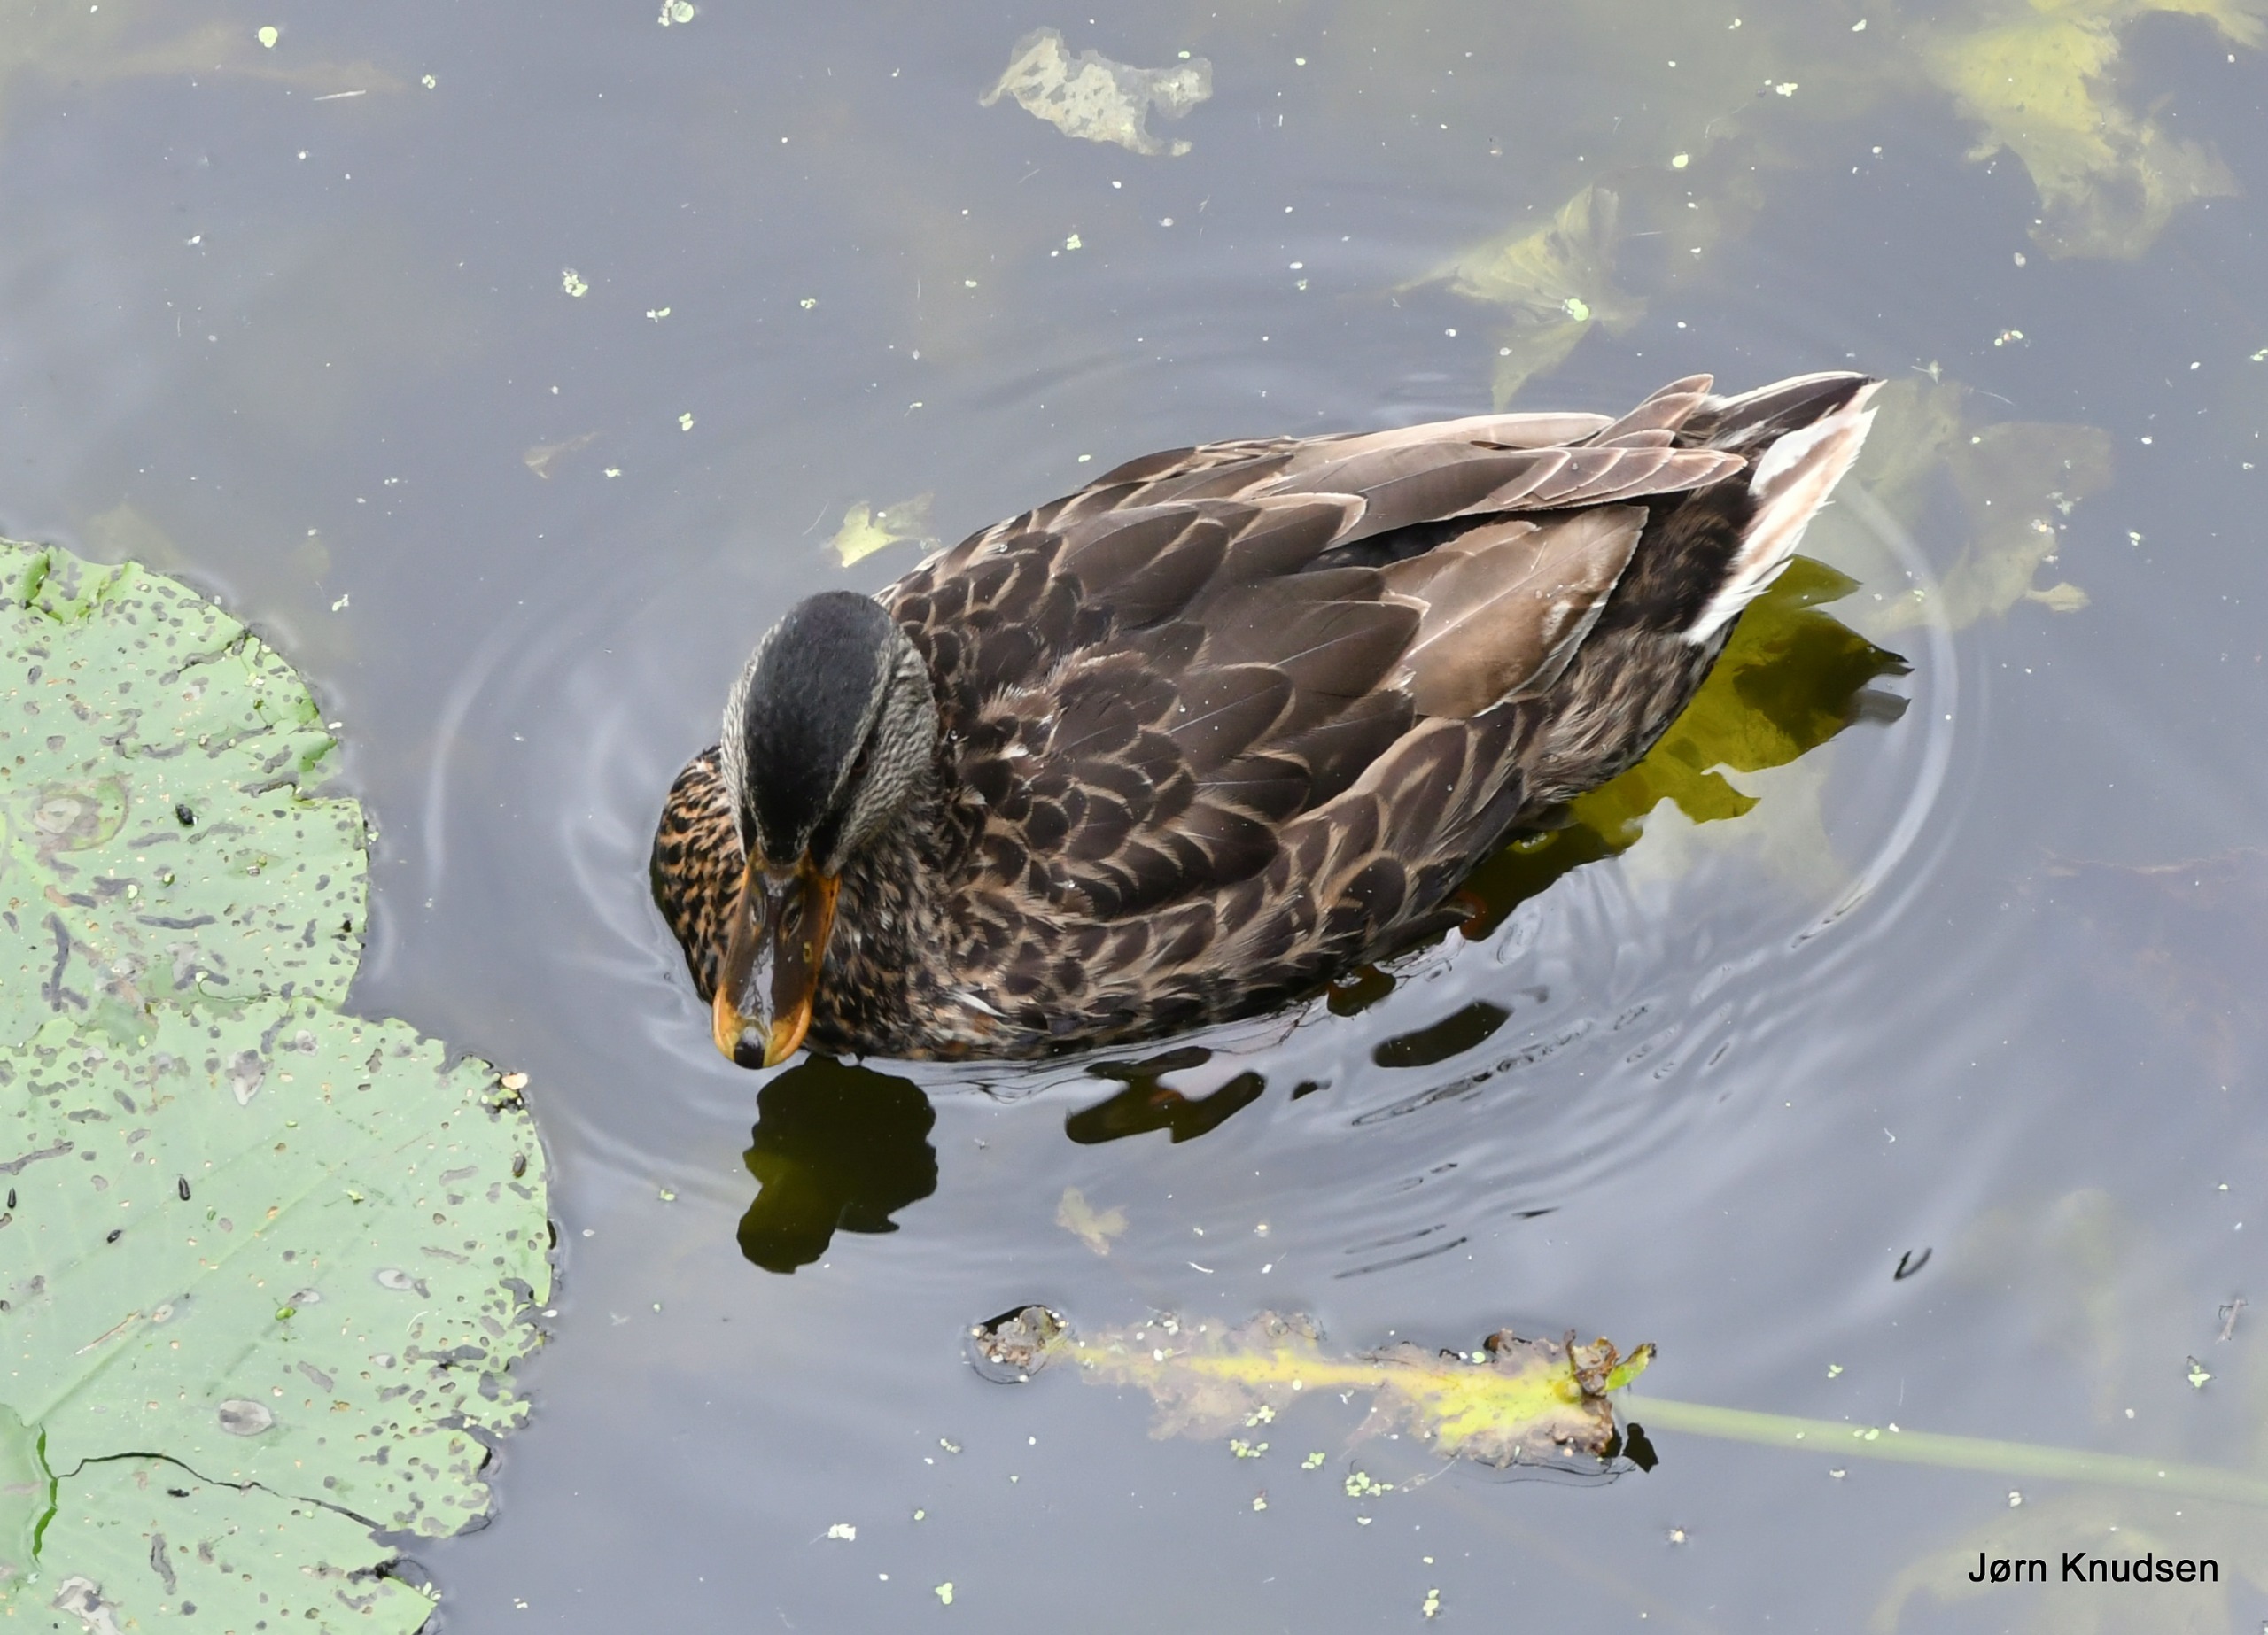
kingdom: Animalia
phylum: Chordata
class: Aves
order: Anseriformes
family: Anatidae
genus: Anas
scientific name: Anas platyrhynchos
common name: Gråand
